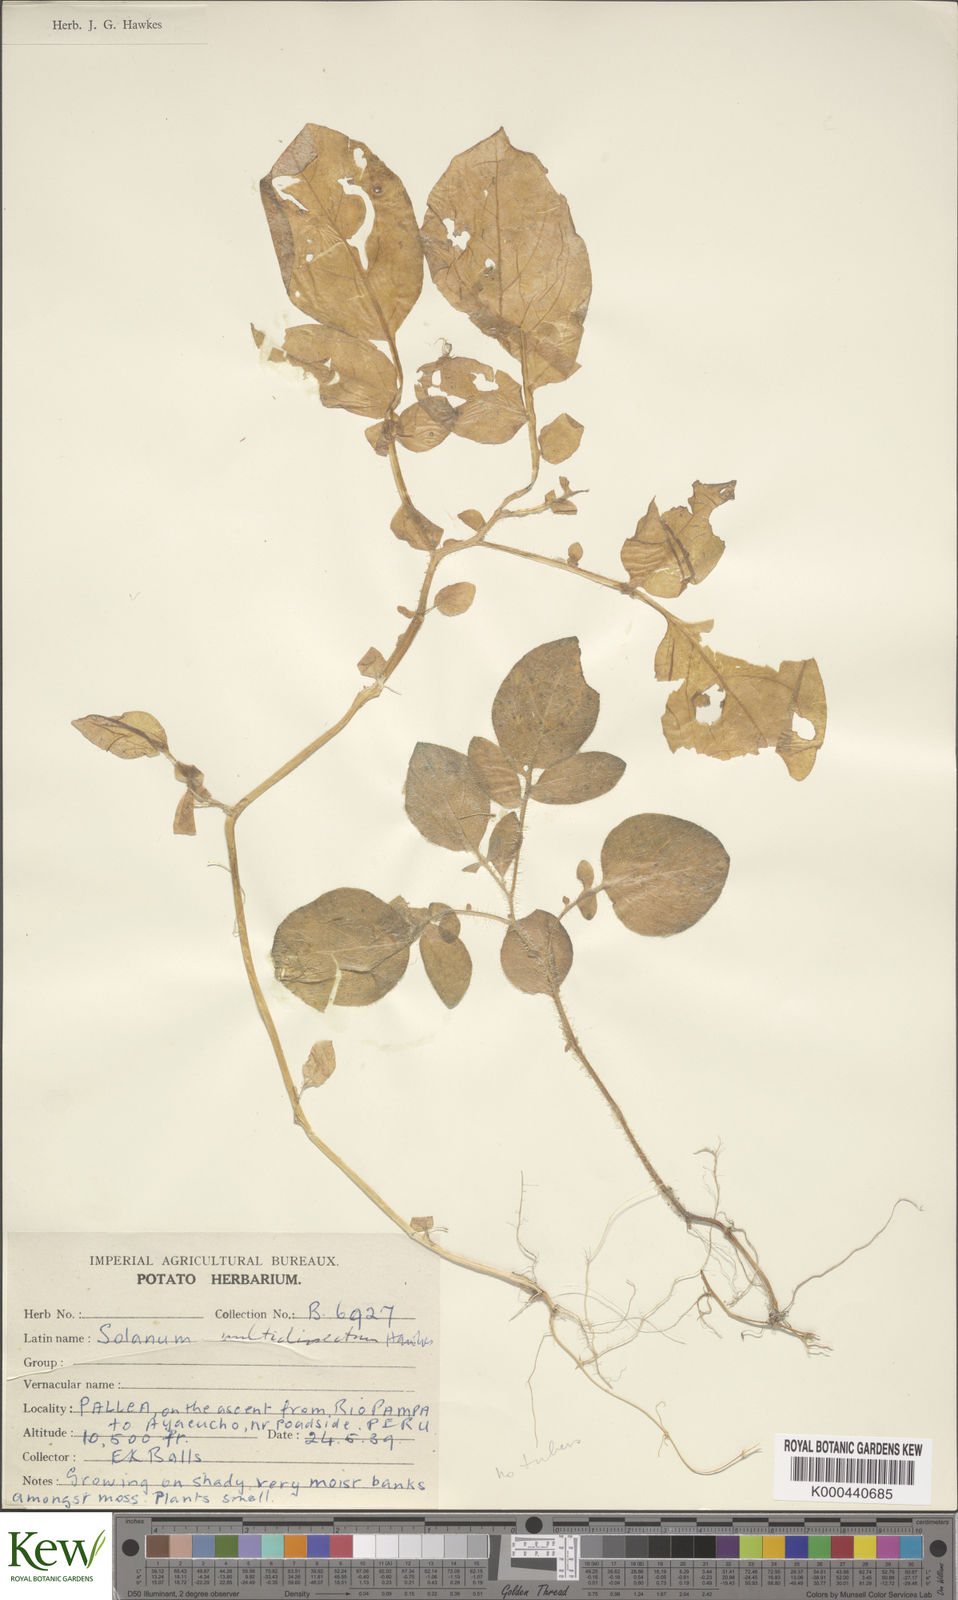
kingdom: Plantae
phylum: Tracheophyta
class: Magnoliopsida
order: Solanales
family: Solanaceae
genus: Solanum
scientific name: Solanum candolleanum
